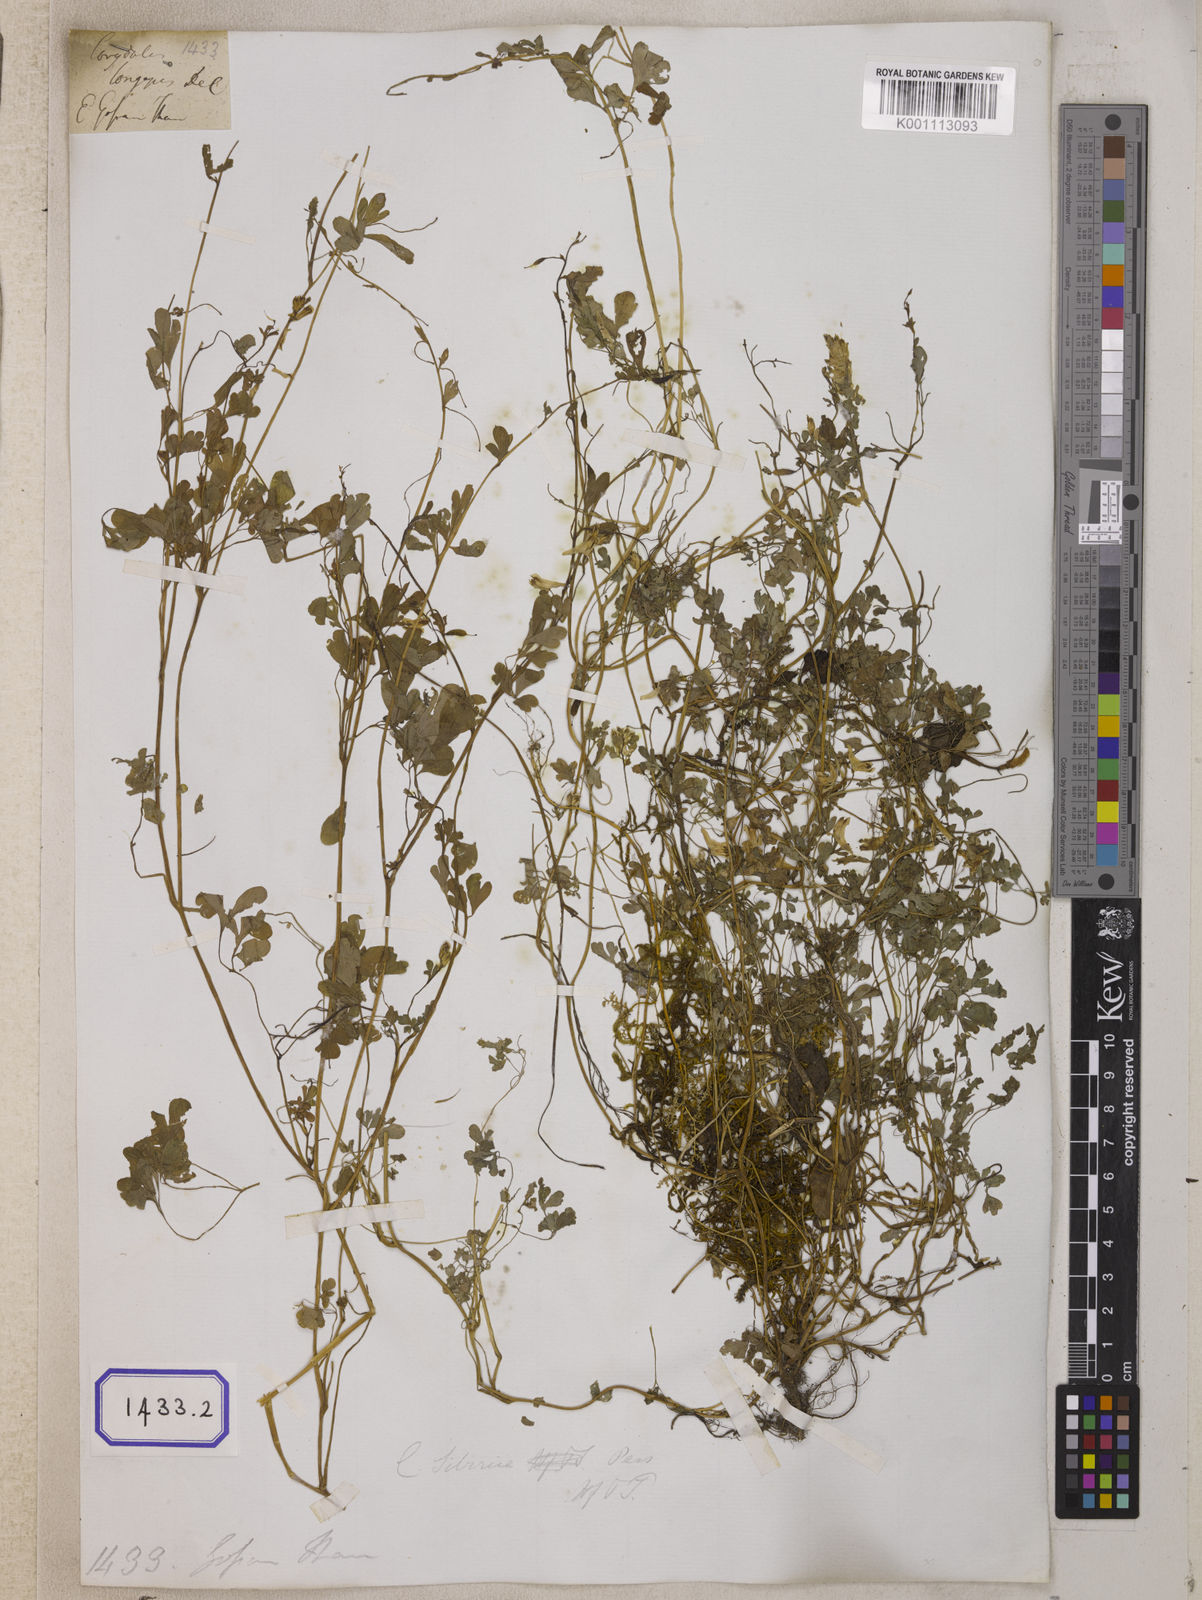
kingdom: Plantae
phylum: Tracheophyta
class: Magnoliopsida
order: Ranunculales
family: Papaveraceae
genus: Corydalis
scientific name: Corydalis longipes
